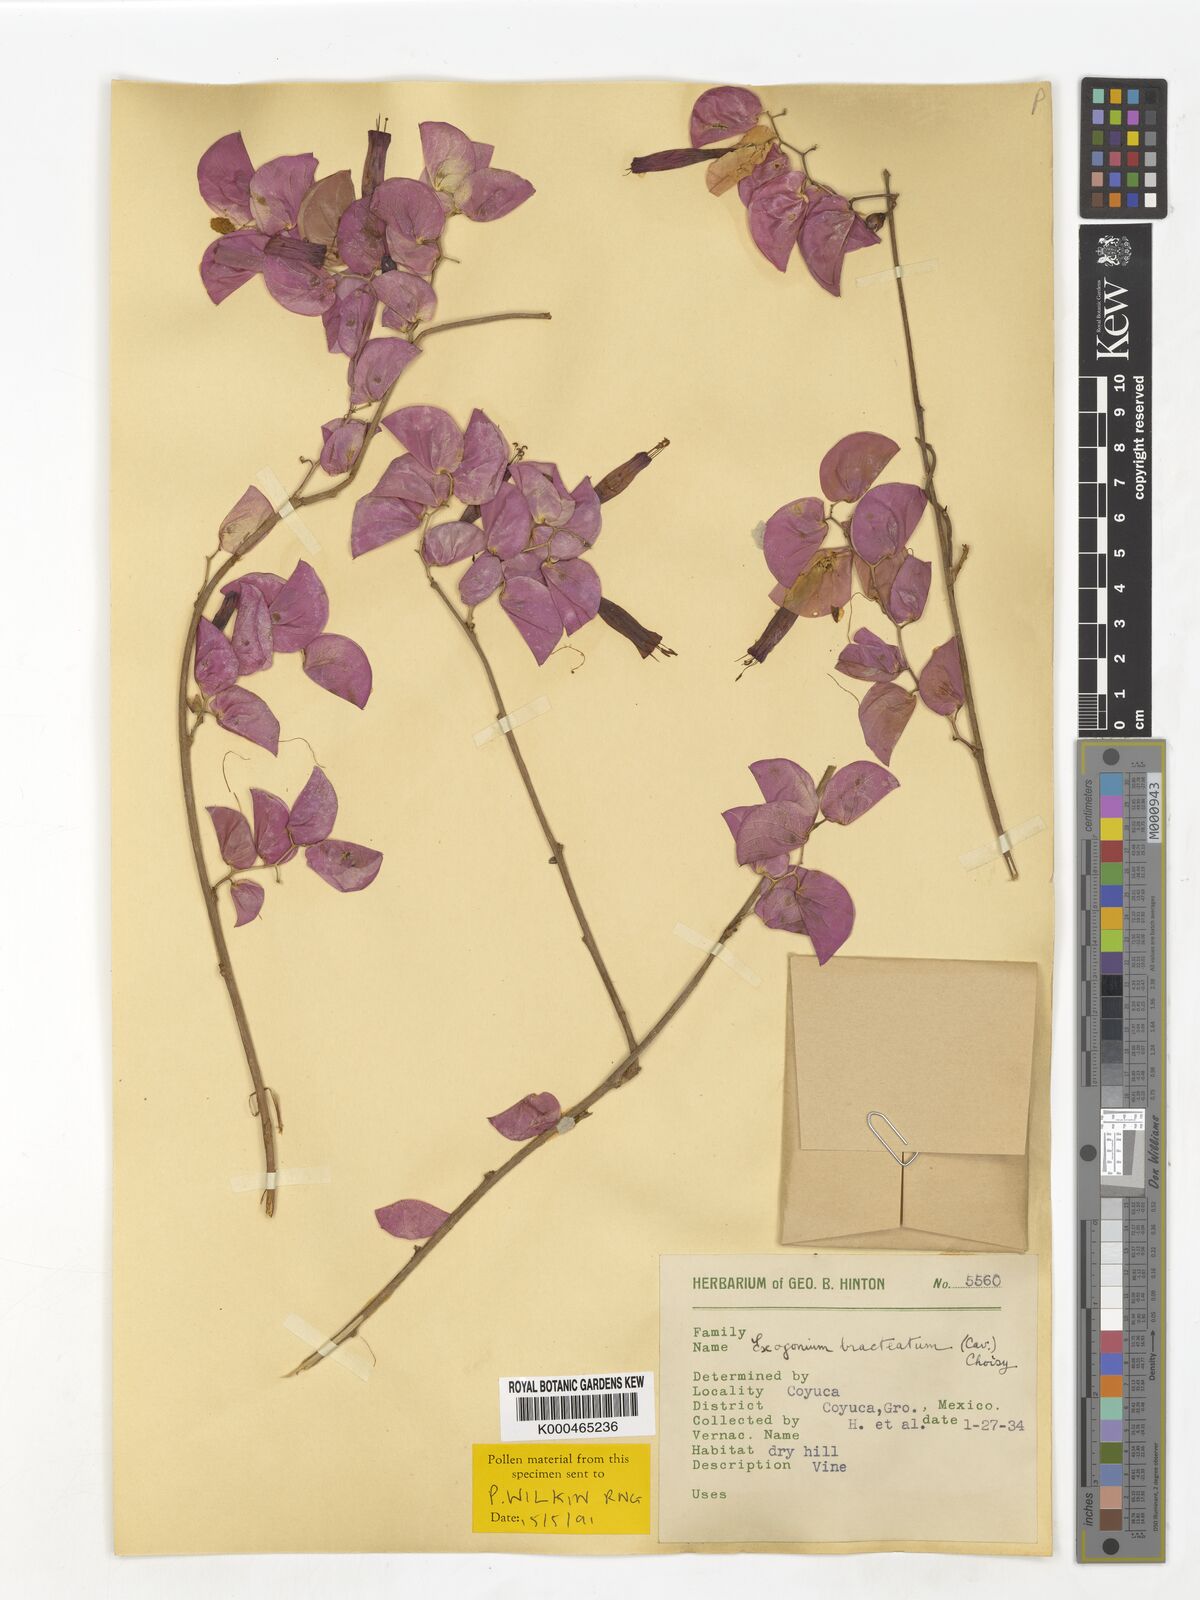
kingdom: Plantae
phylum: Tracheophyta
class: Magnoliopsida
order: Solanales
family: Convolvulaceae
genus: Ipomoea
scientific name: Ipomoea bracteata
